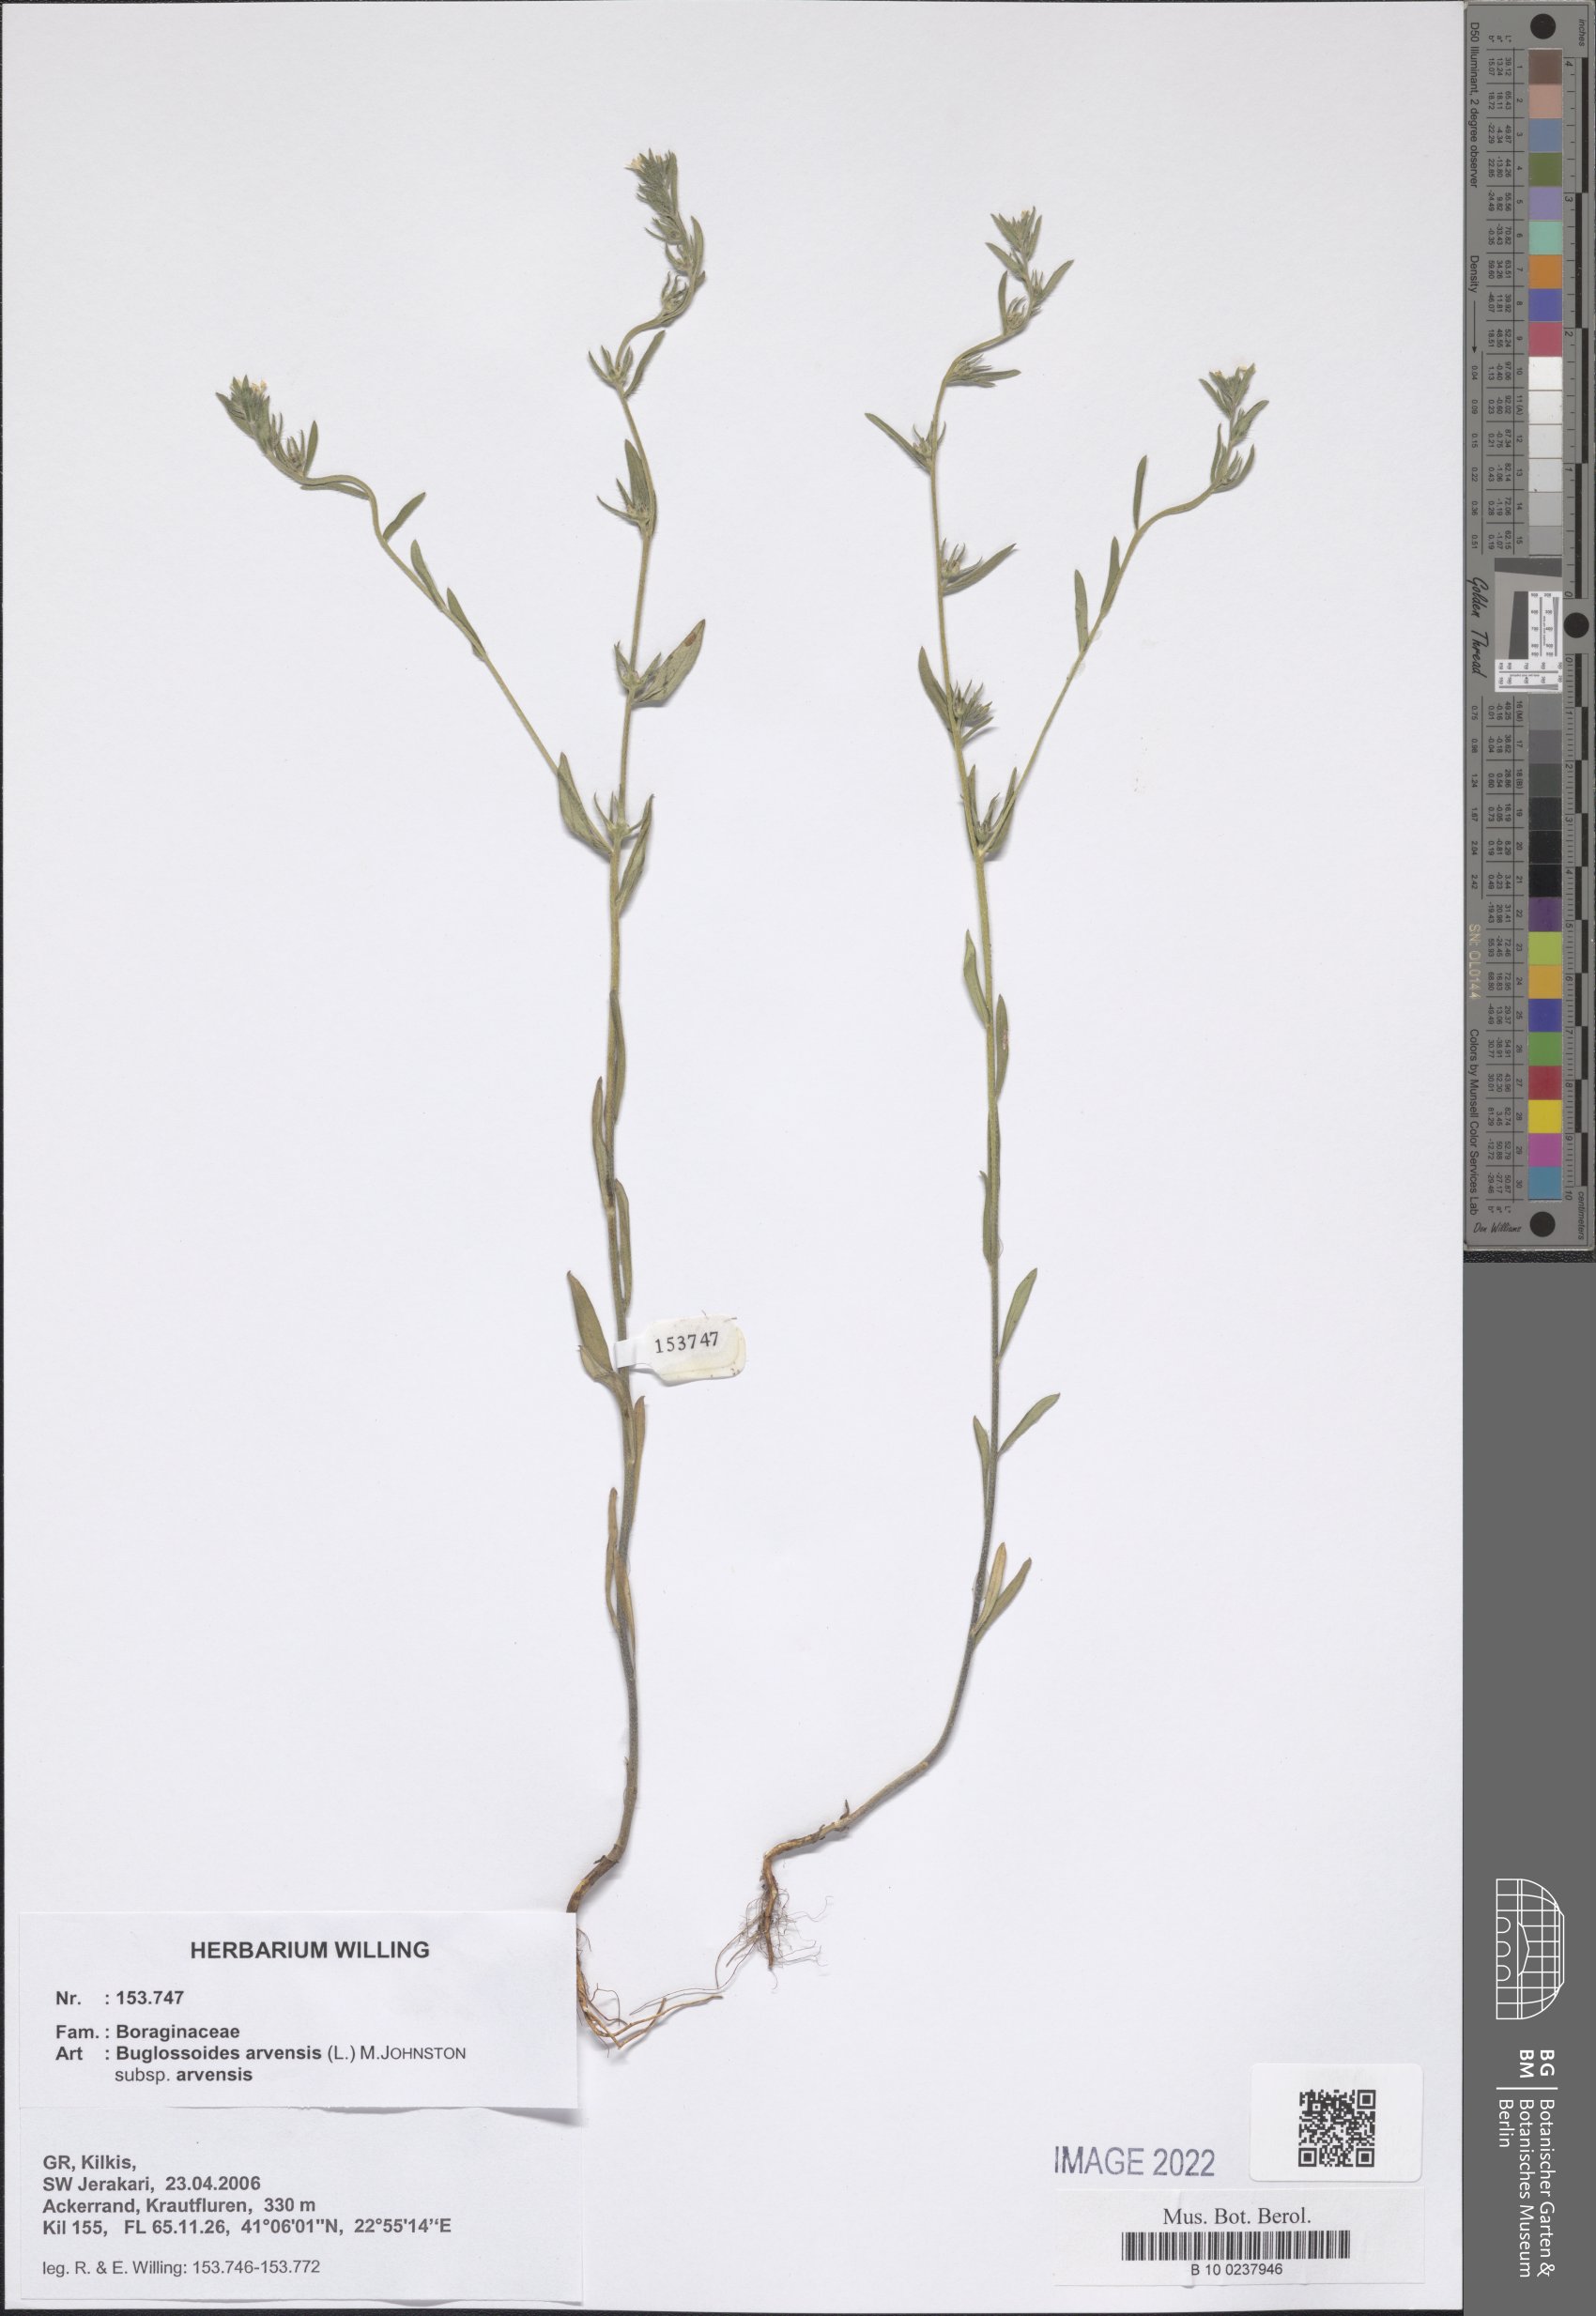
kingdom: Plantae
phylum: Tracheophyta
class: Magnoliopsida
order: Boraginales
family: Boraginaceae
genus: Buglossoides
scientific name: Buglossoides arvensis
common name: Corn gromwell
